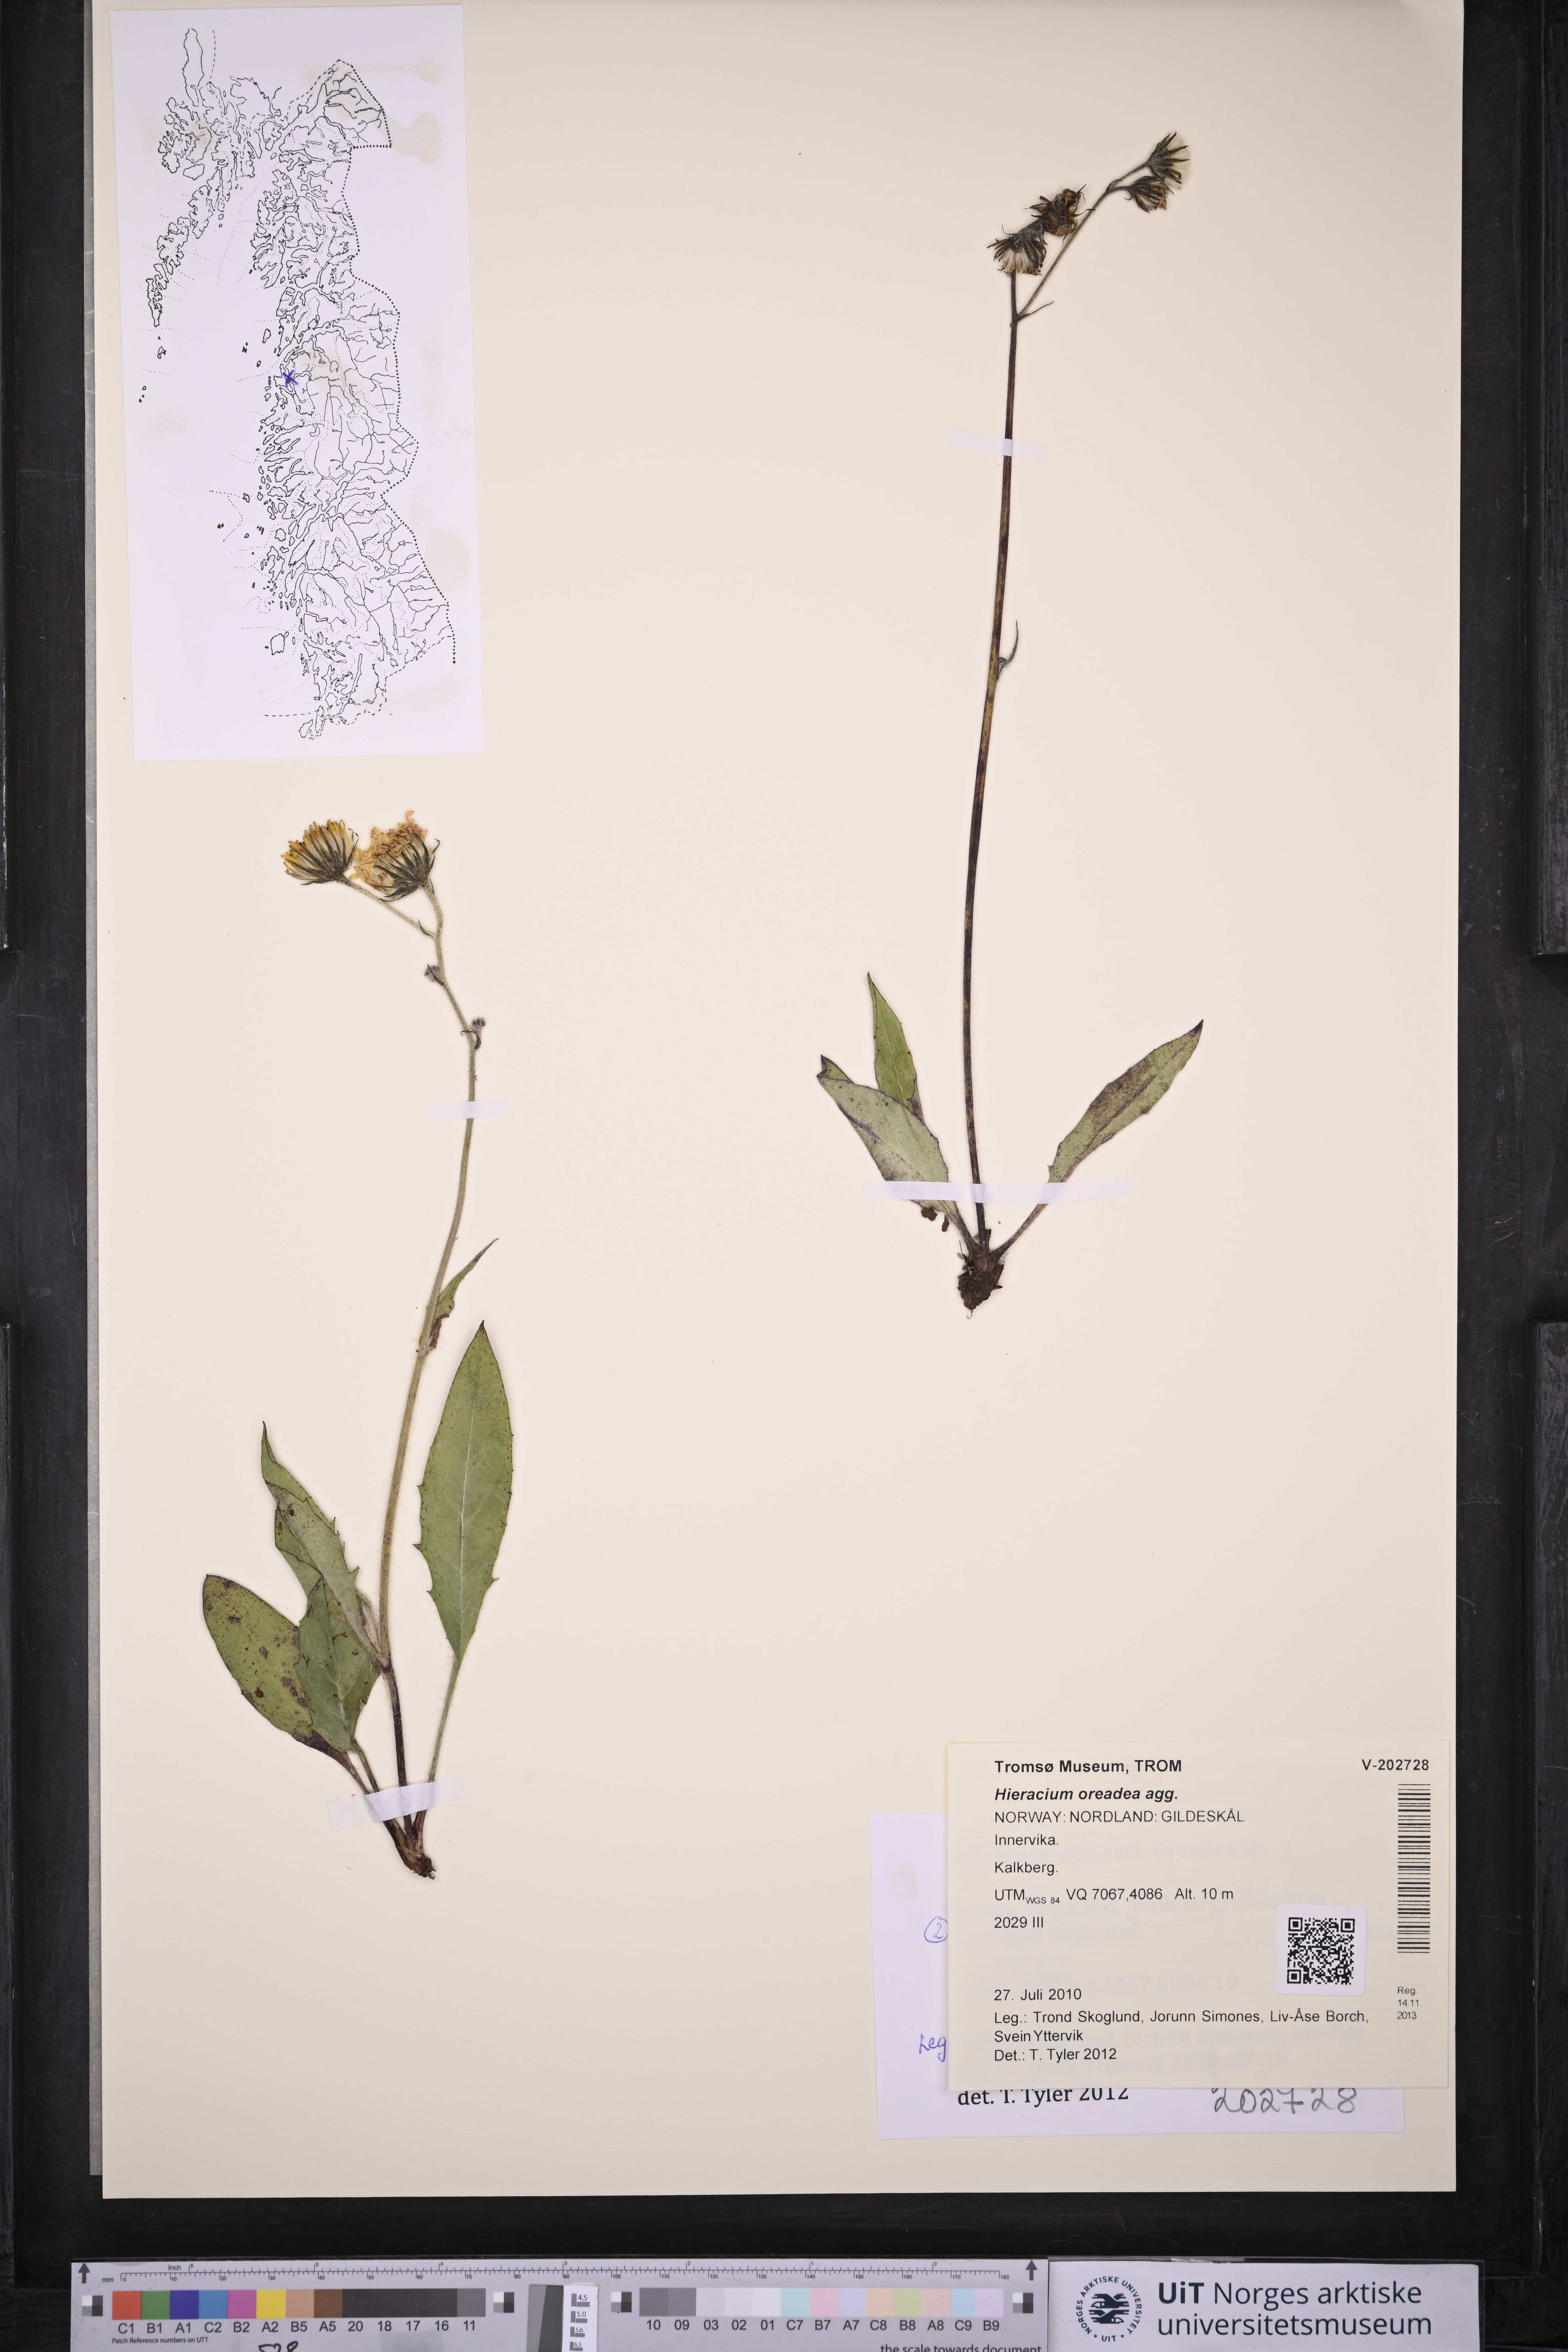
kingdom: Plantae
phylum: Tracheophyta
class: Magnoliopsida
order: Asterales
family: Asteraceae
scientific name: Asteraceae
